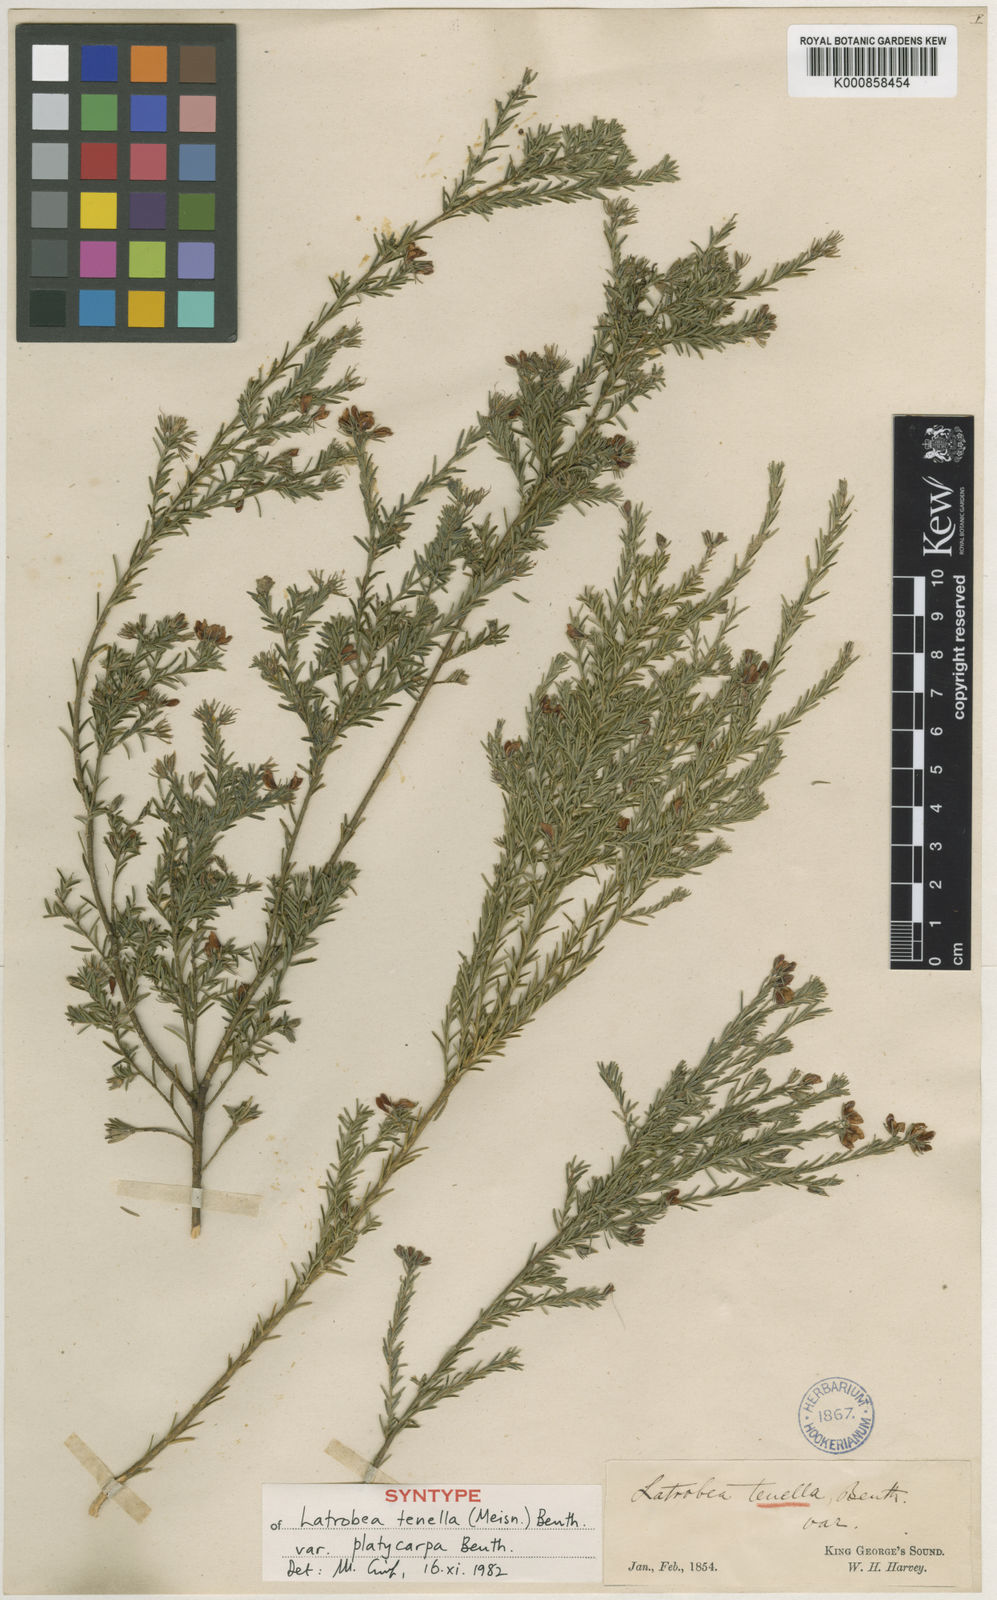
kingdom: Plantae
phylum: Tracheophyta
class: Magnoliopsida
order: Fabales
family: Fabaceae
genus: Latrobea
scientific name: Latrobea tenella
